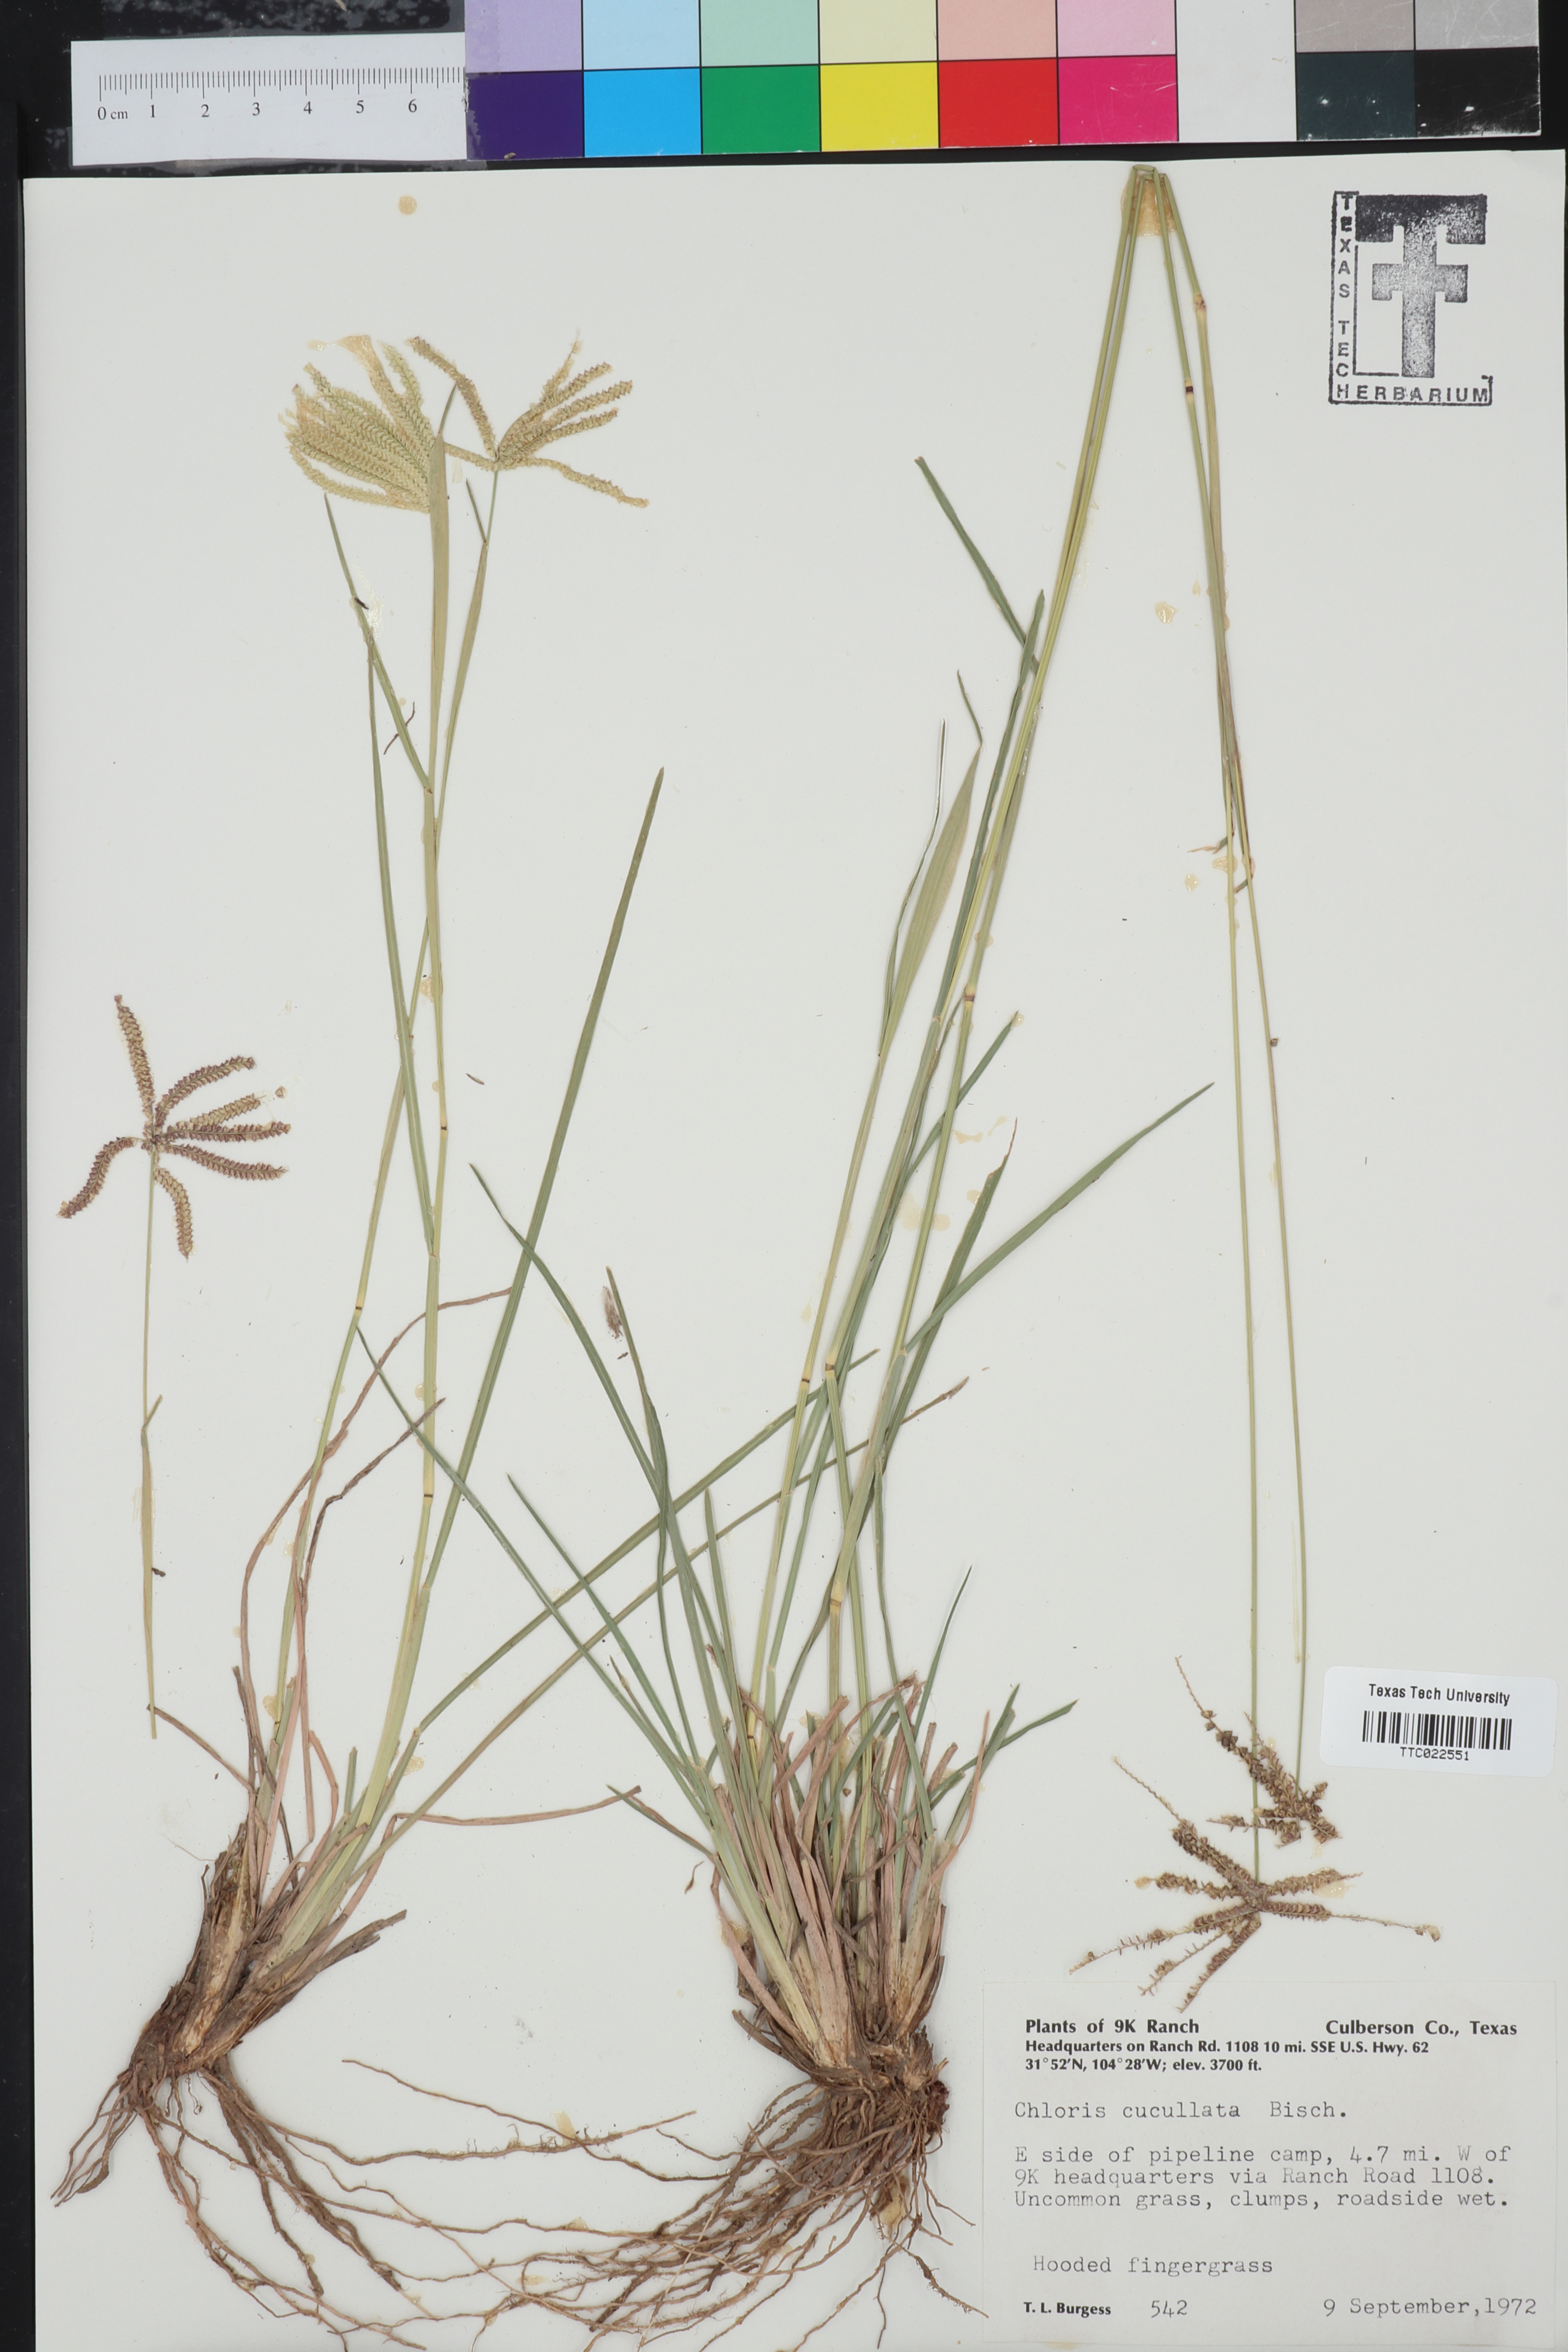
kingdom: Plantae
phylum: Tracheophyta
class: Liliopsida
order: Poales
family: Poaceae
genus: Chloris
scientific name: Chloris cucullata
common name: Hooded windmill grass
